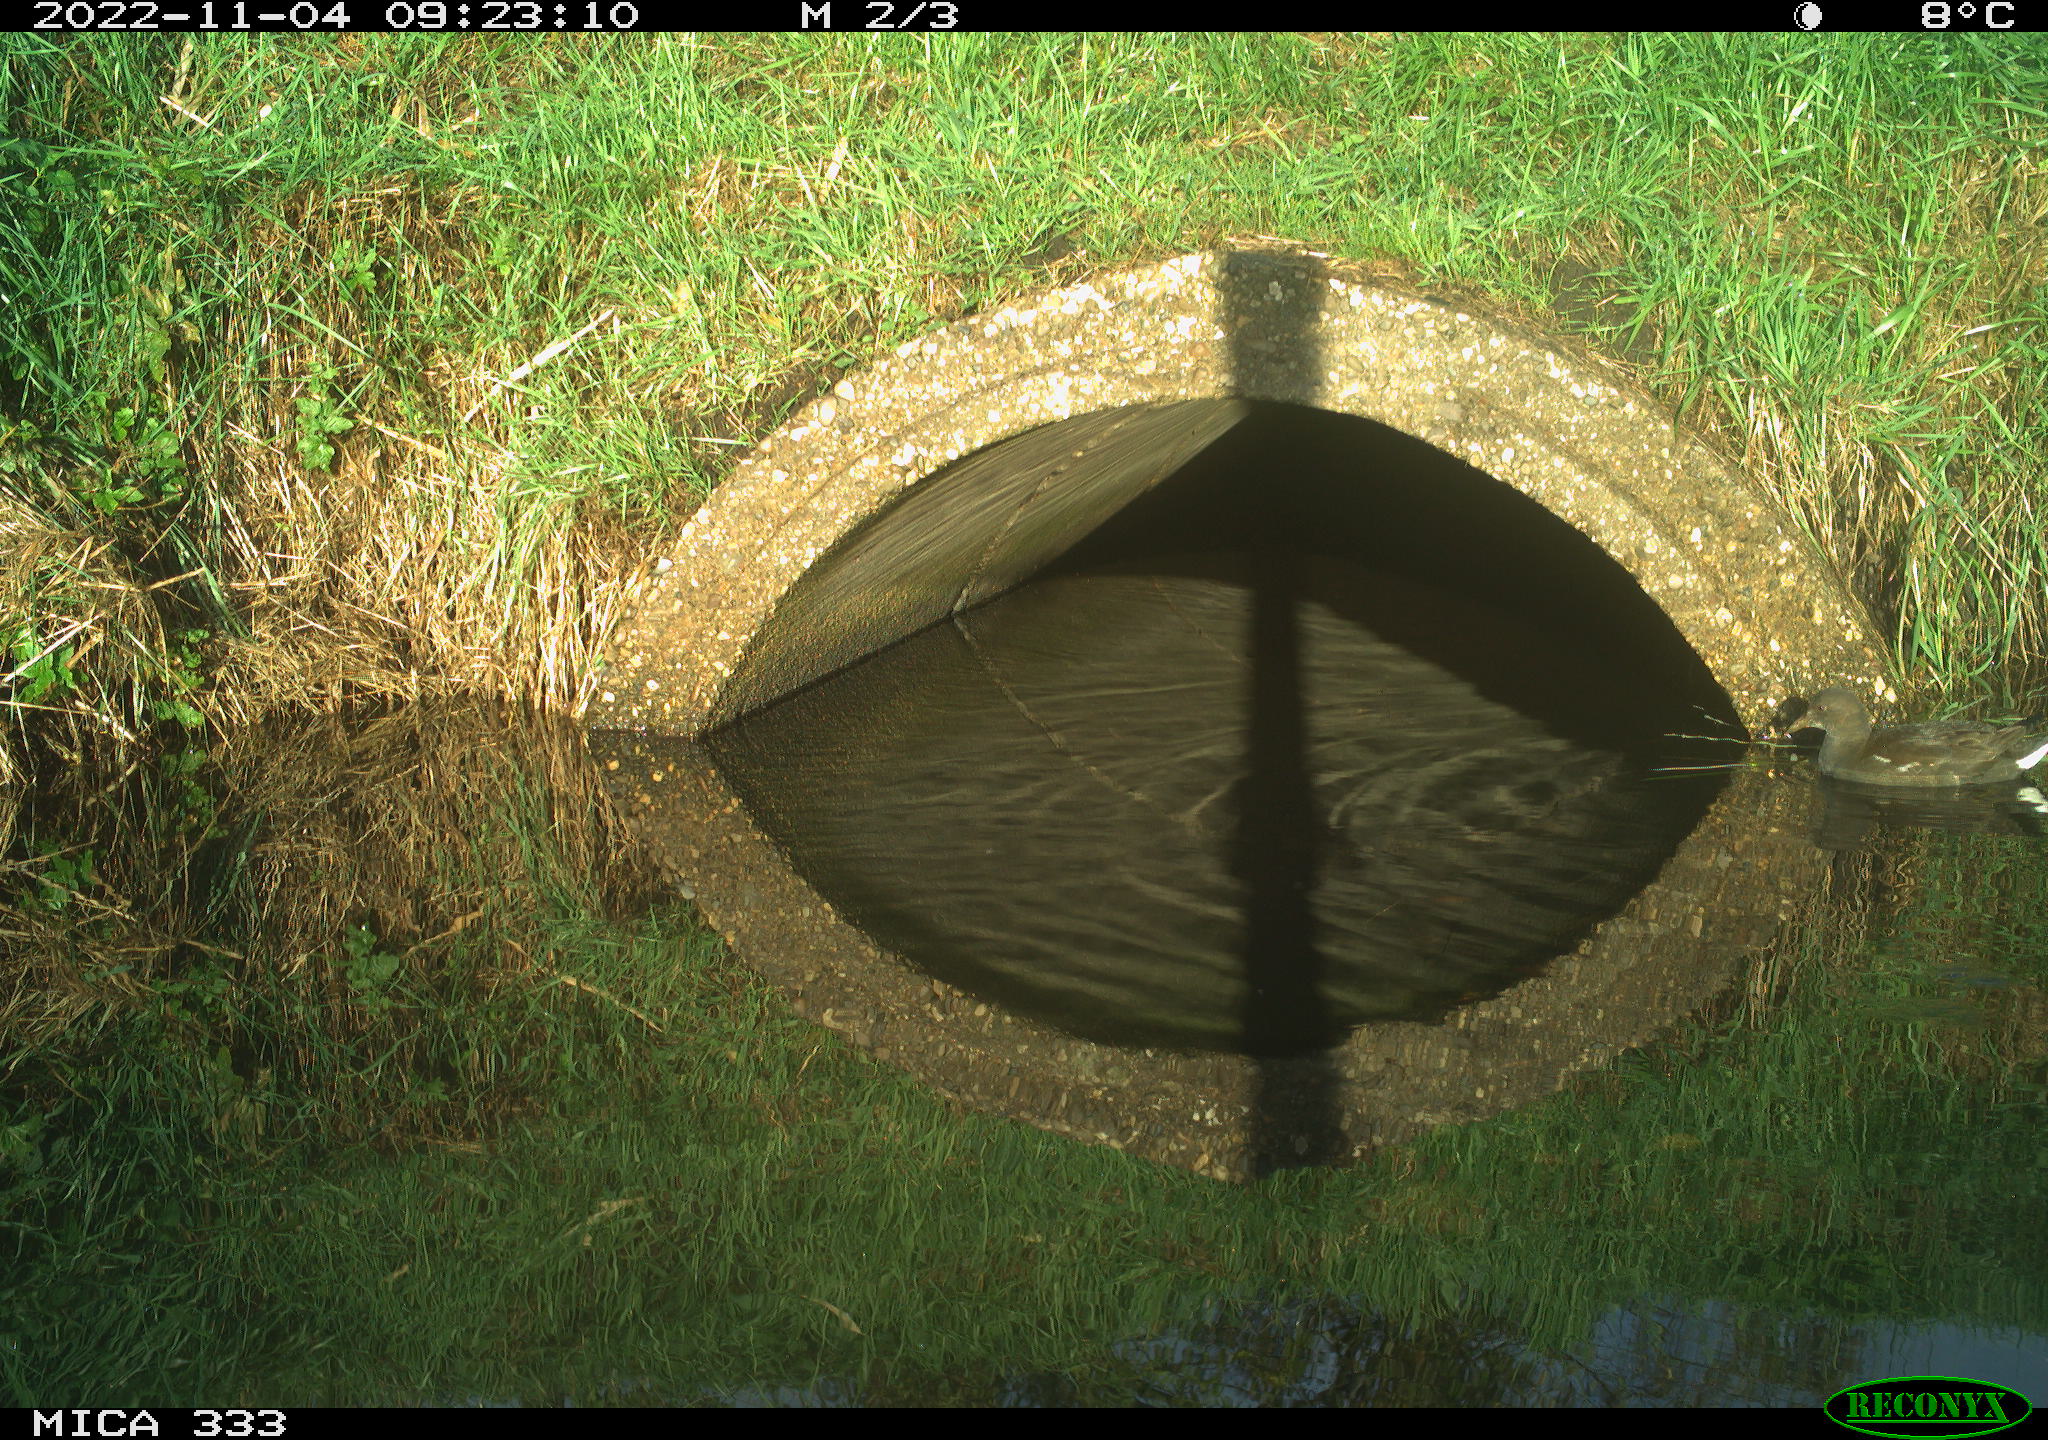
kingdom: Animalia
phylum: Chordata
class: Aves
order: Gruiformes
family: Rallidae
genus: Gallinula
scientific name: Gallinula chloropus
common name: Common moorhen
